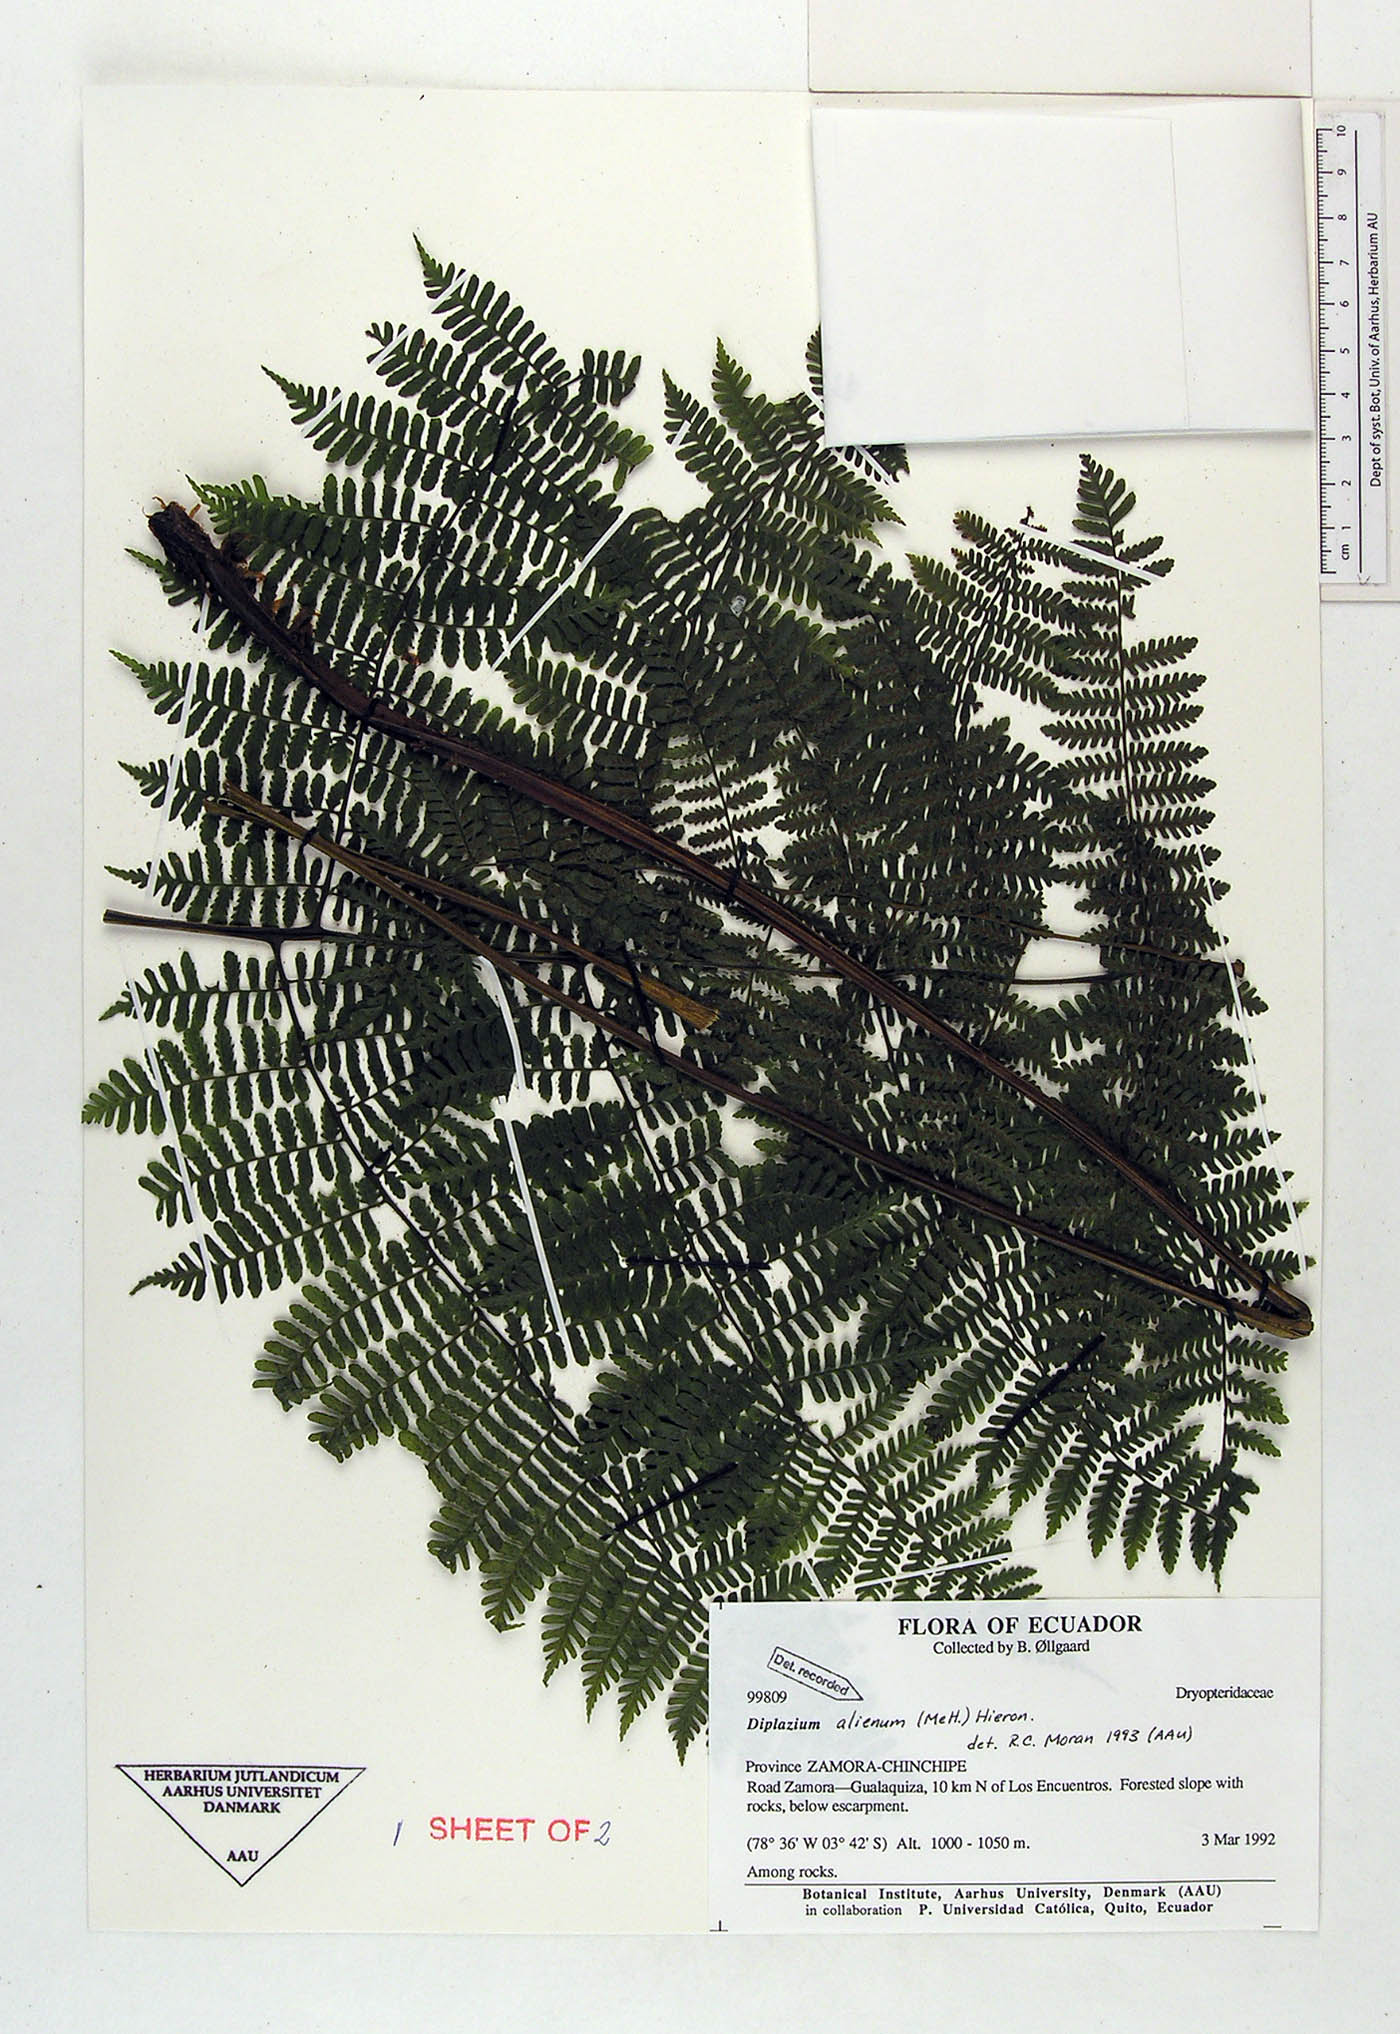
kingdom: Plantae
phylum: Tracheophyta
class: Polypodiopsida
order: Polypodiales
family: Athyriaceae
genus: Diplazium
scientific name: Diplazium alienum
